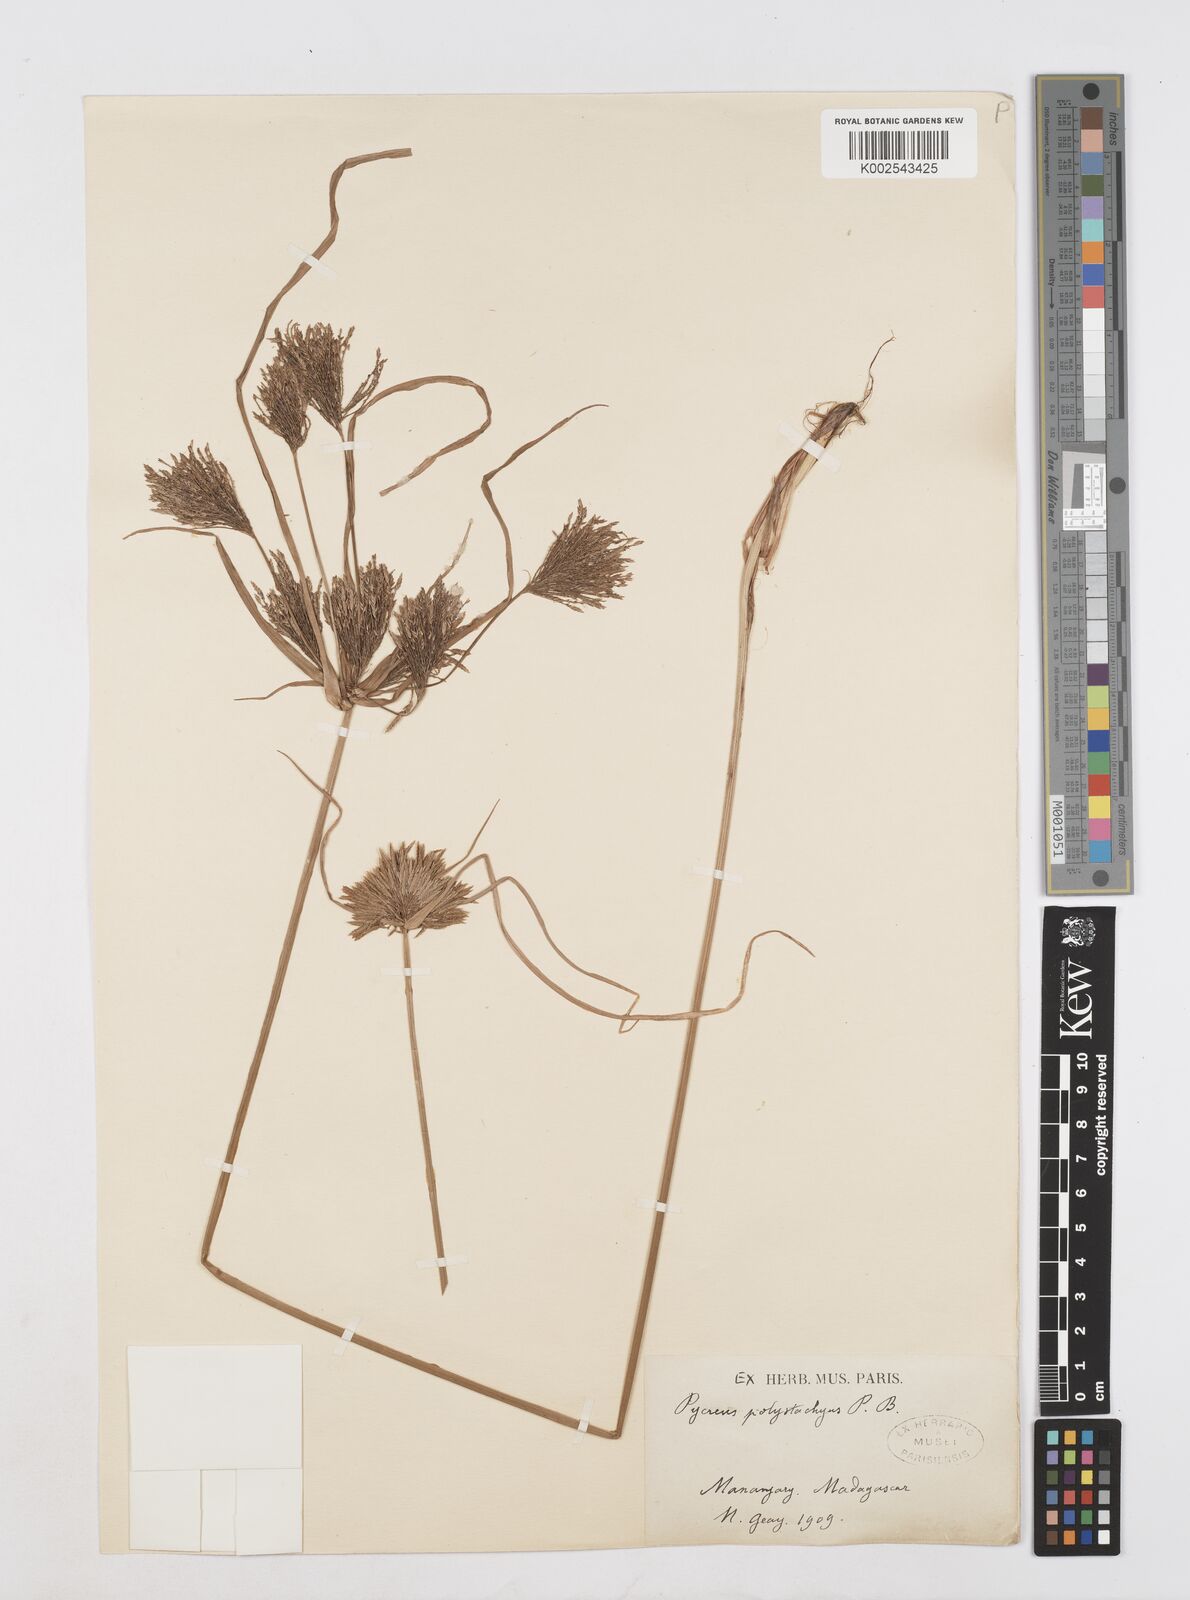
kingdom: Plantae
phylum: Tracheophyta
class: Liliopsida
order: Poales
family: Cyperaceae
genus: Cyperus
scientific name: Cyperus polystachyos
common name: Bunchy flat sedge
